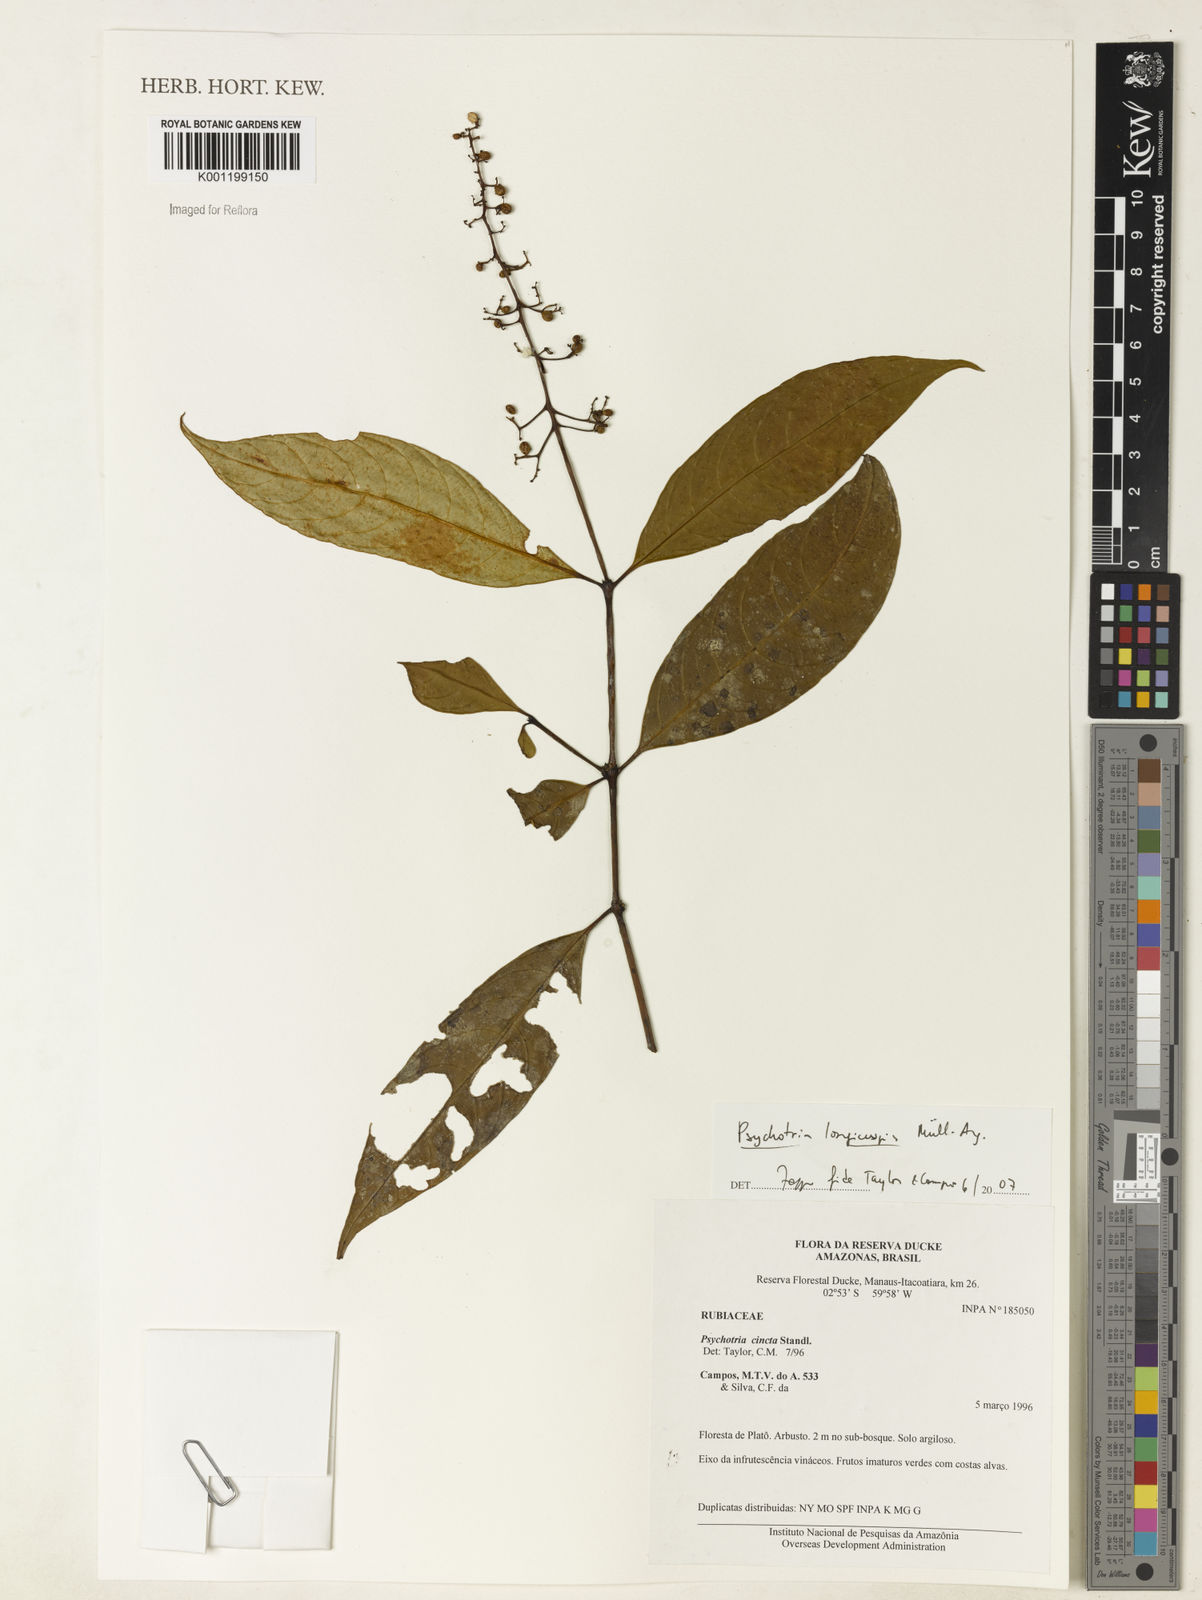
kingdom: Plantae
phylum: Tracheophyta
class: Magnoliopsida
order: Gentianales
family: Rubiaceae
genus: Psychotria
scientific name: Psychotria
